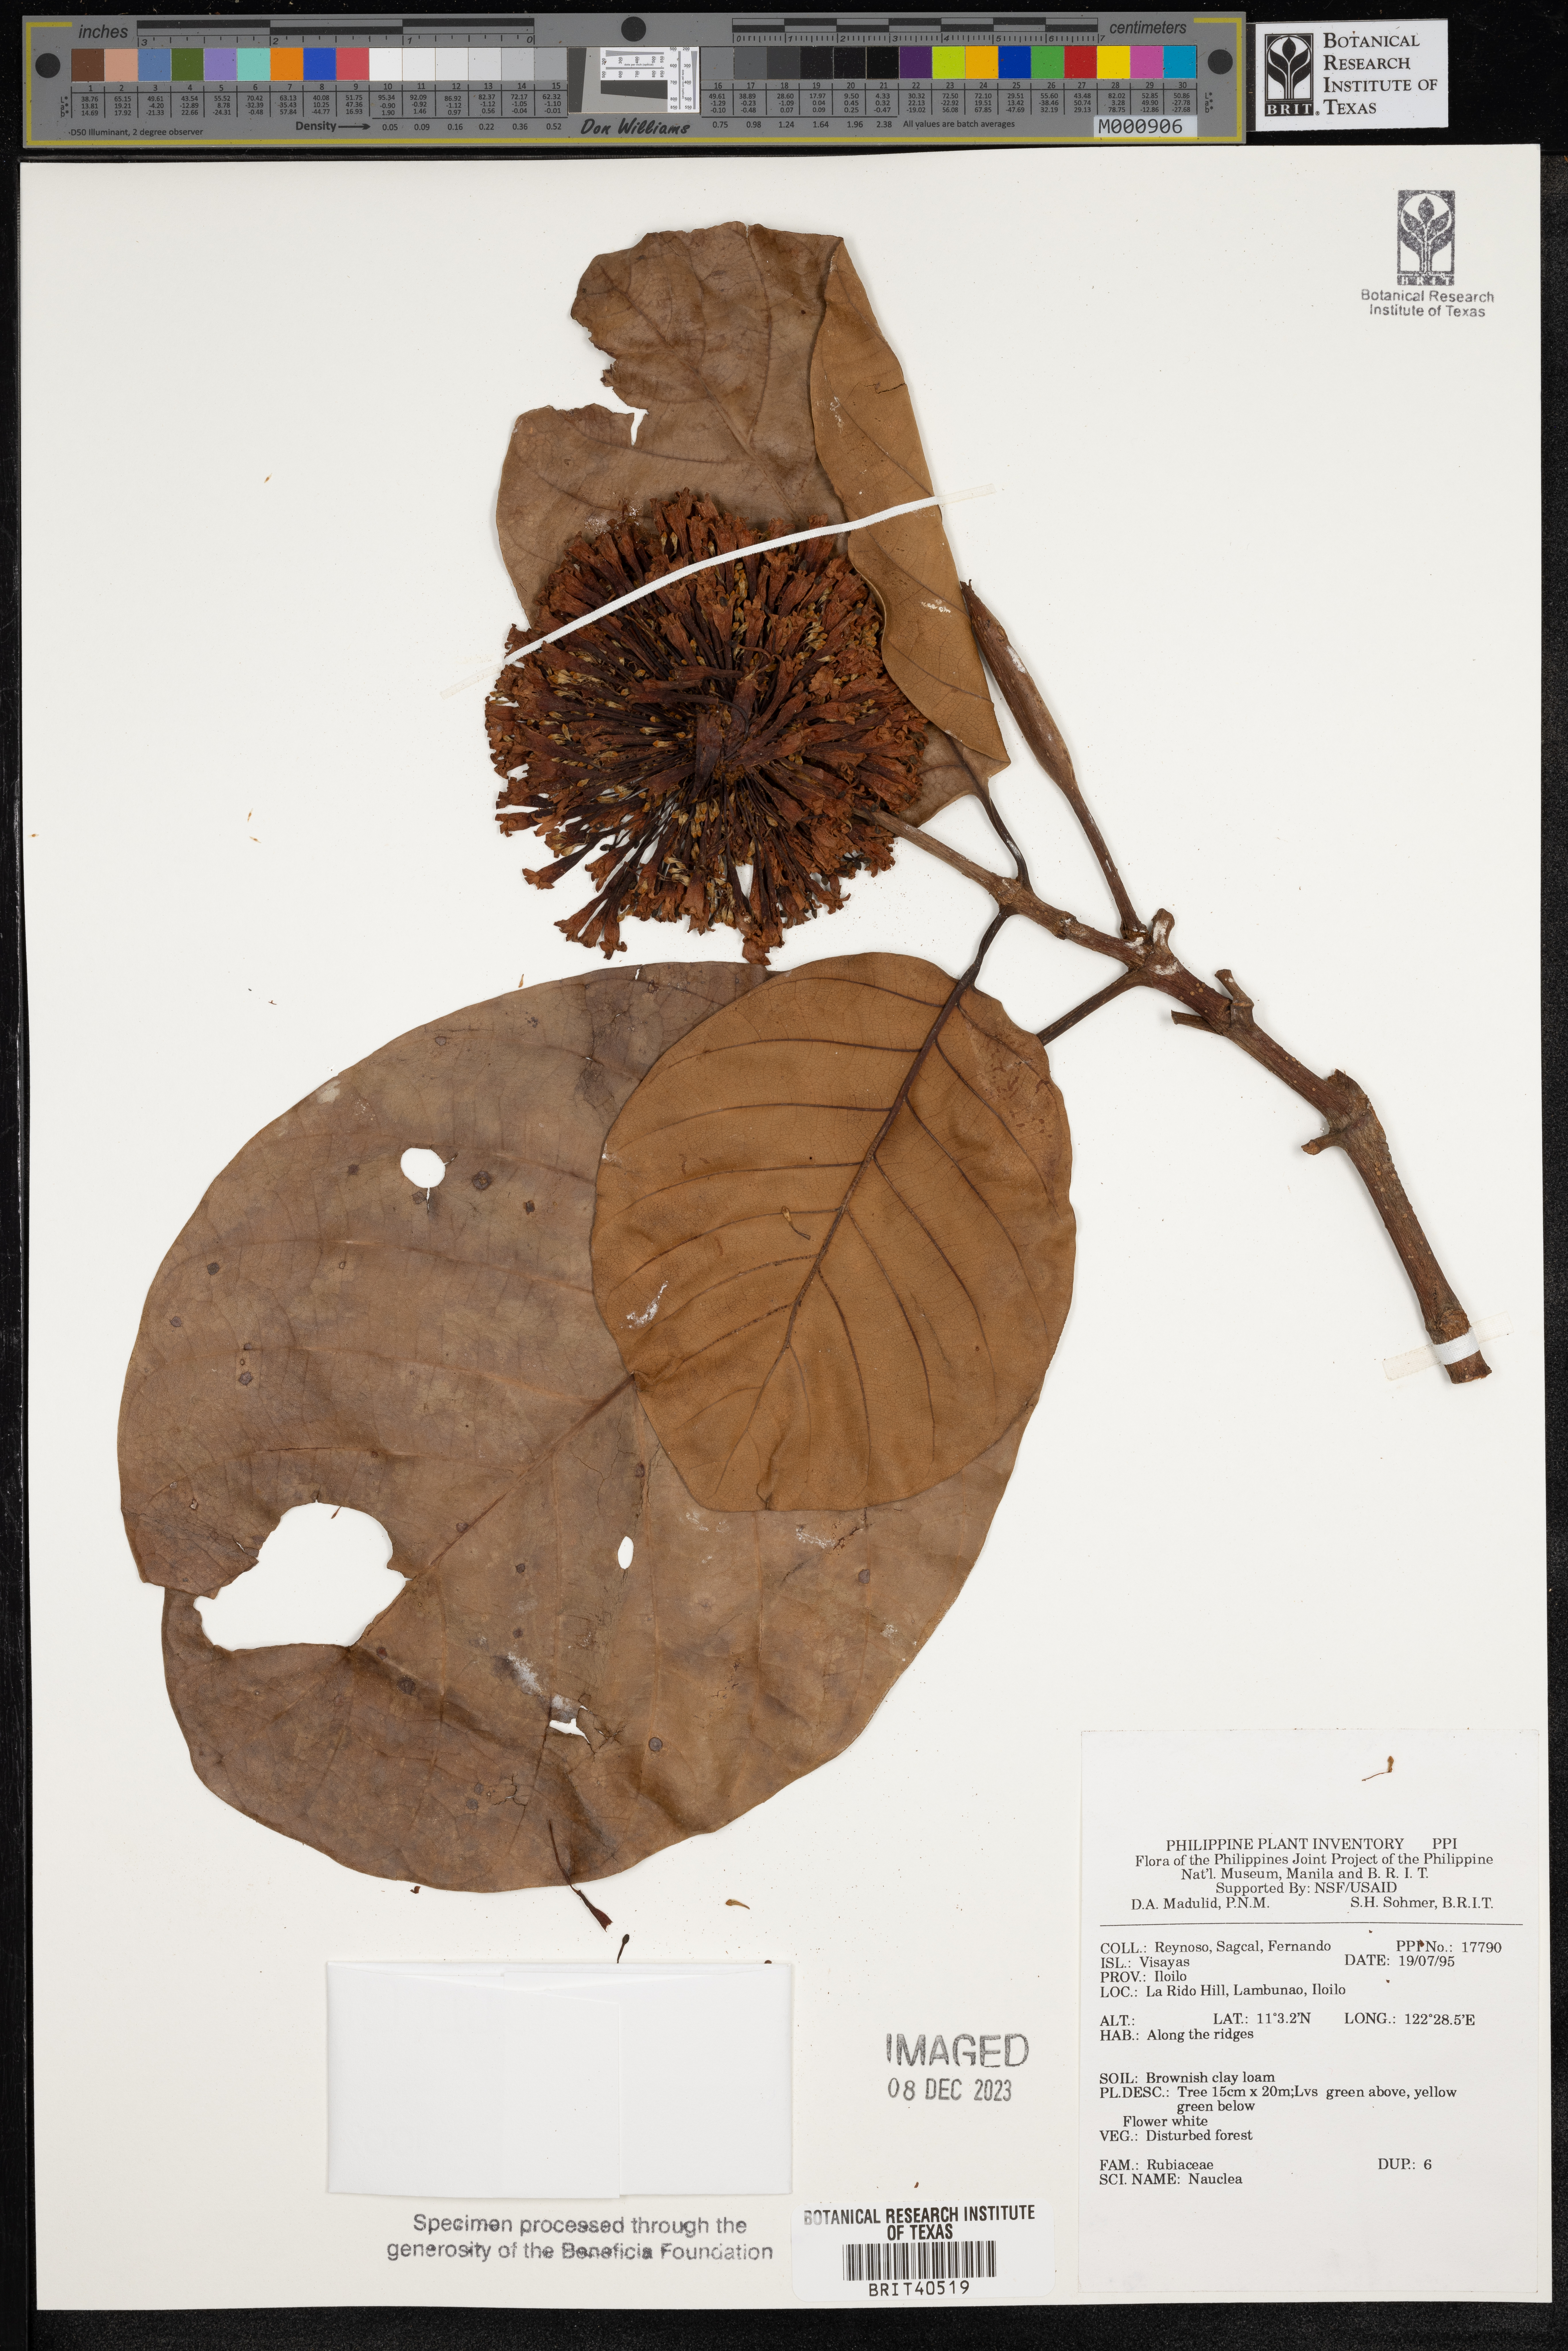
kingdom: Plantae
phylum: Tracheophyta
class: Magnoliopsida
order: Gentianales
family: Rubiaceae
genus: Nauclea
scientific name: Nauclea
